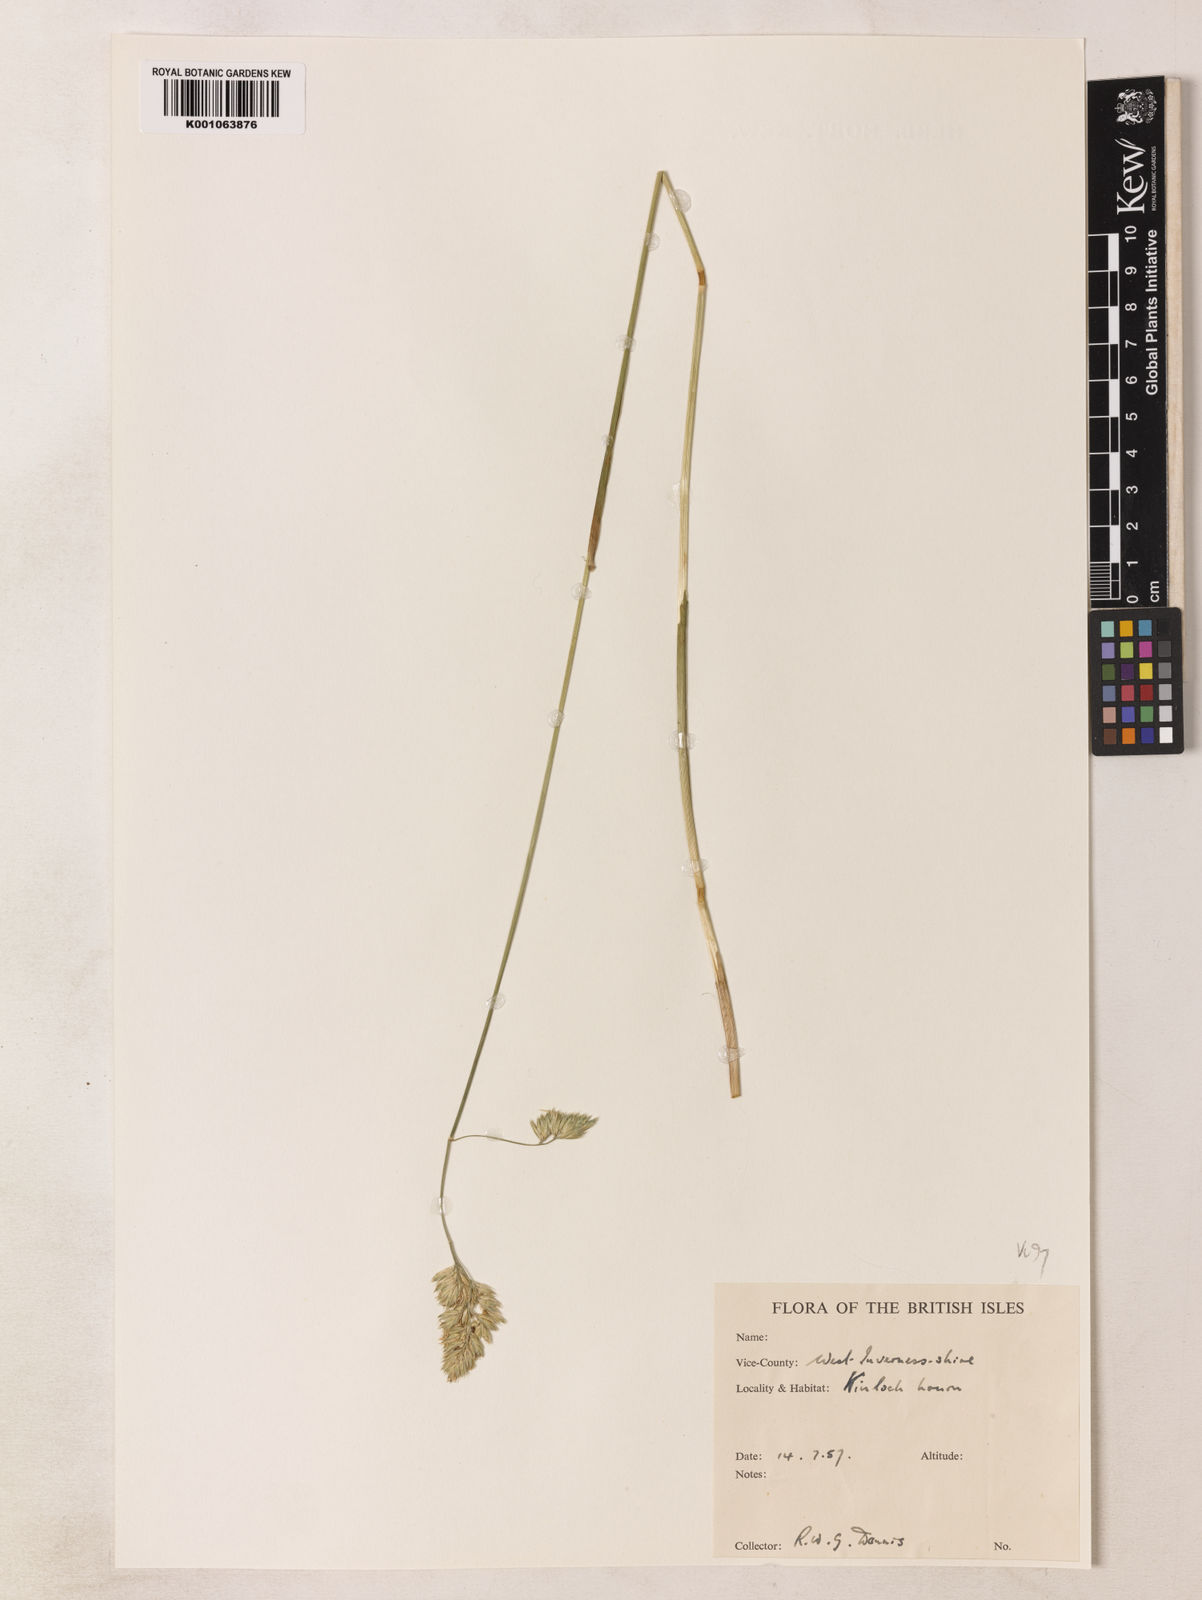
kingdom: Plantae
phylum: Tracheophyta
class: Liliopsida
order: Poales
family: Poaceae
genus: Dactylis
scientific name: Dactylis glomerata
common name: Orchardgrass
